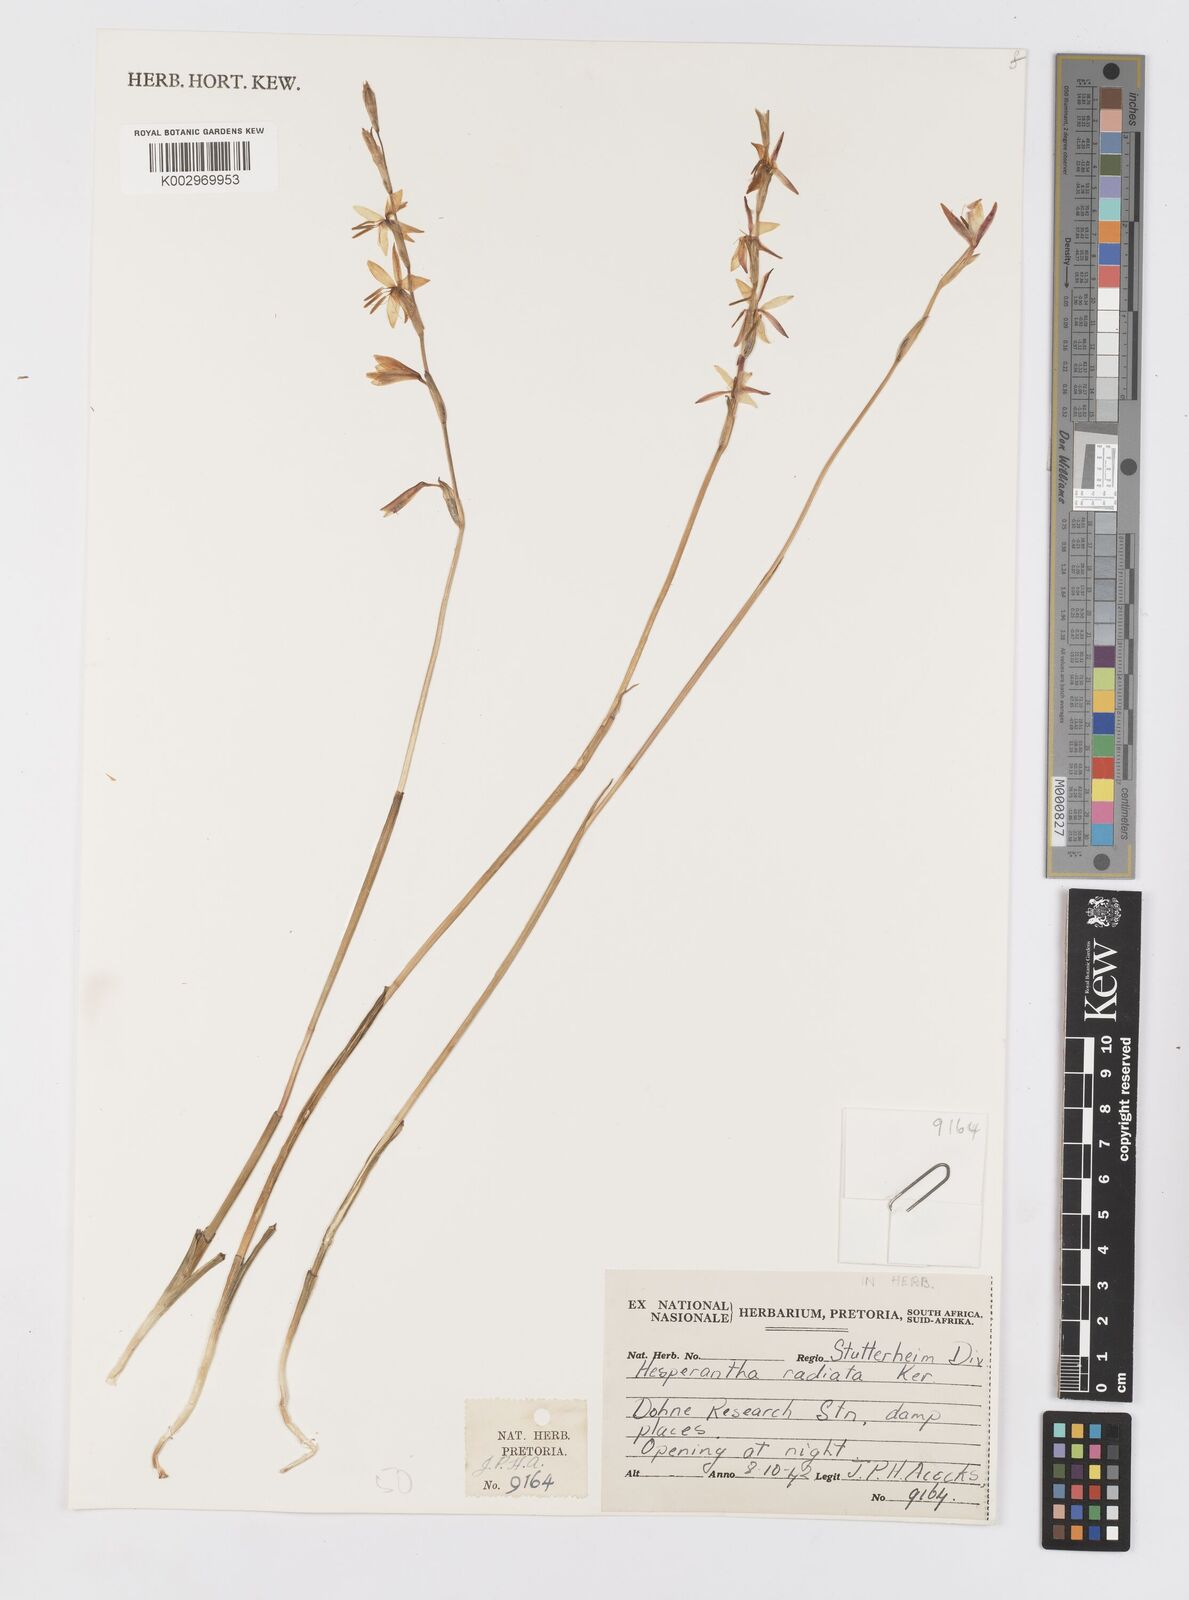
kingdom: Plantae
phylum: Tracheophyta
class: Liliopsida
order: Asparagales
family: Iridaceae
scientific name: Iridaceae
